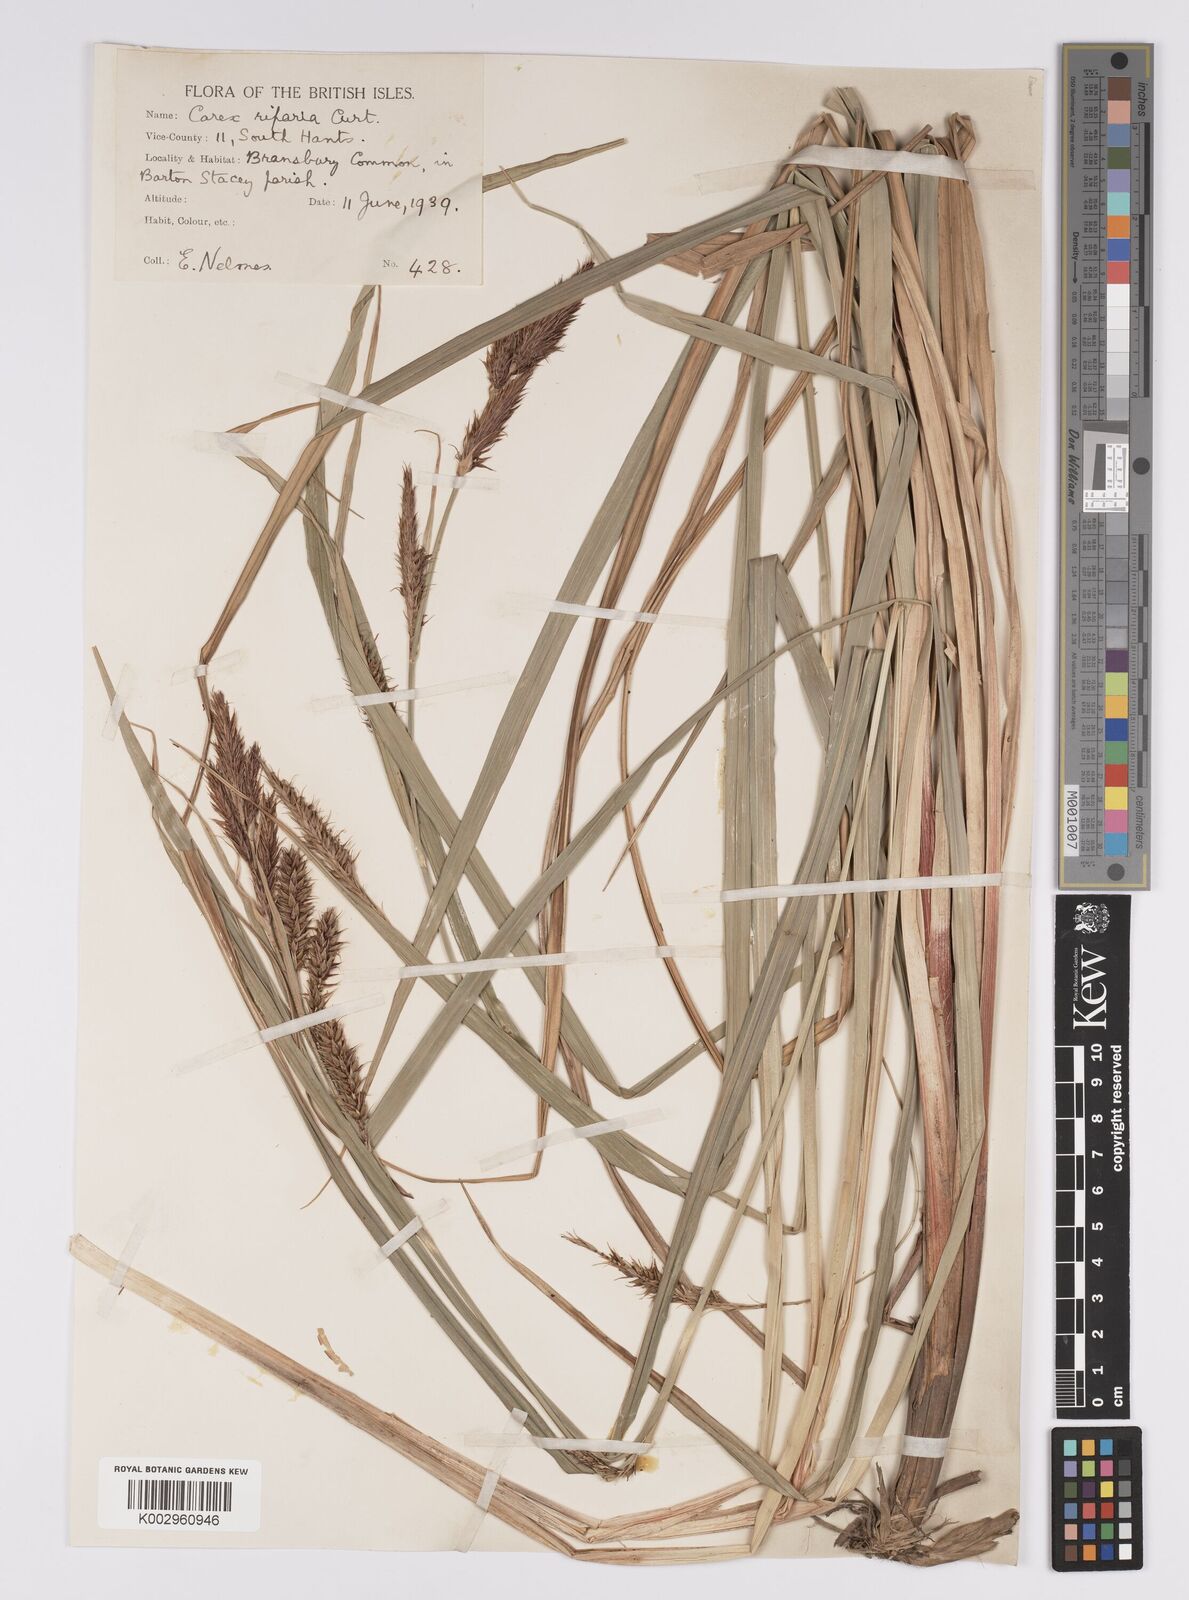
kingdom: Plantae
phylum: Tracheophyta
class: Liliopsida
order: Poales
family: Cyperaceae
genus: Carex
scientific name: Carex riparia
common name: Greater pond-sedge
